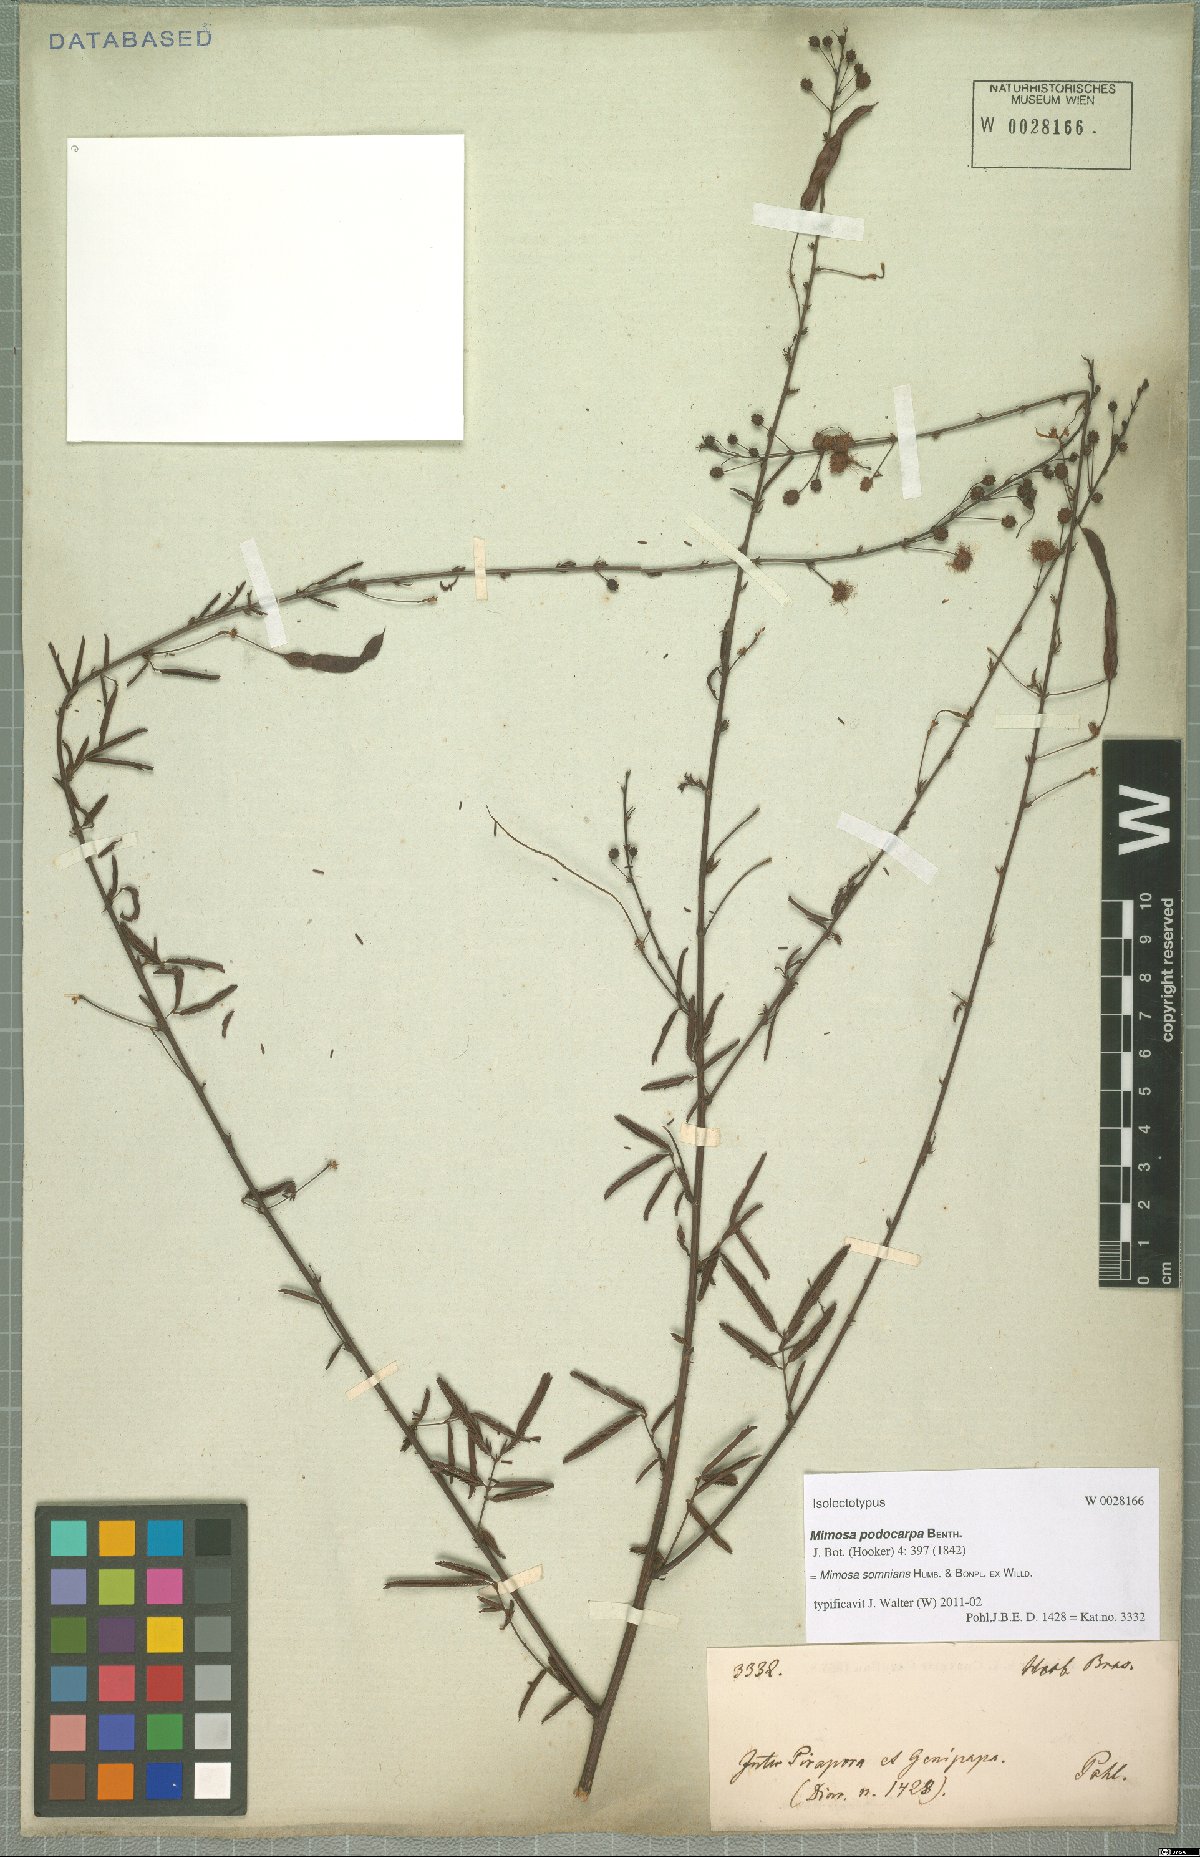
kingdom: Plantae
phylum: Tracheophyta
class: Magnoliopsida
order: Fabales
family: Fabaceae
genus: Mimosa
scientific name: Mimosa somnians
